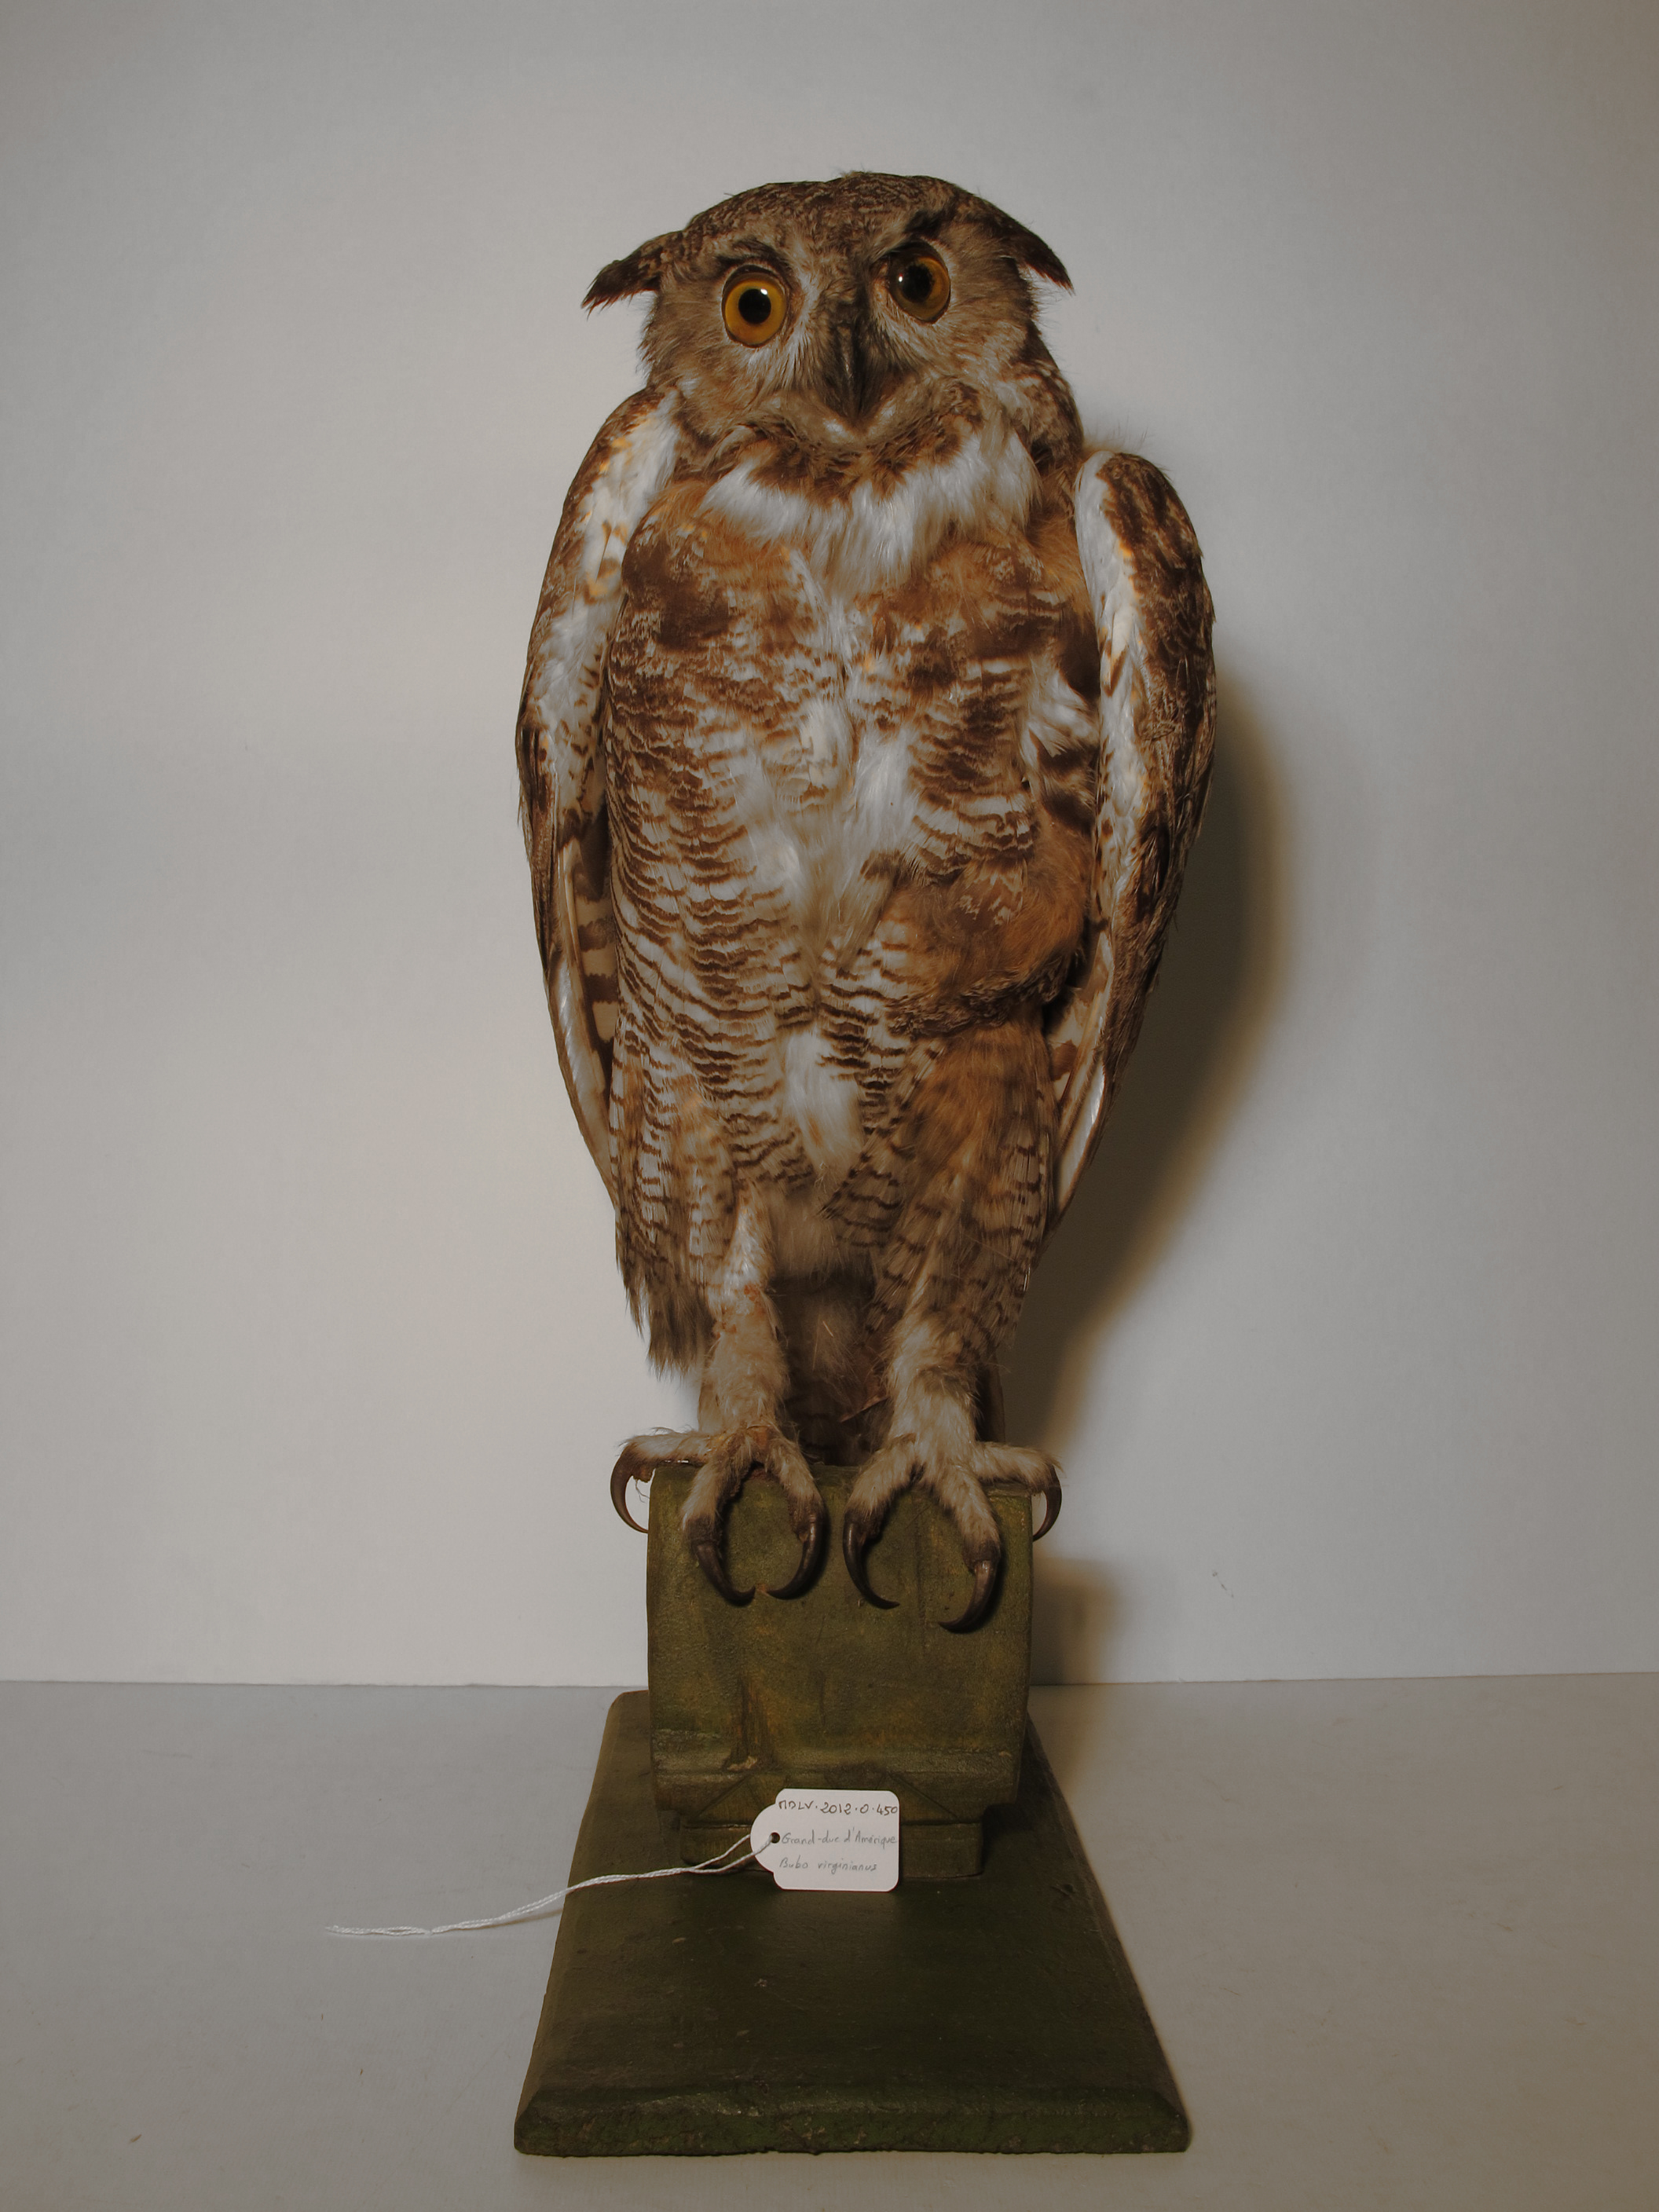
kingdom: Animalia
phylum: Chordata
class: Aves
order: Strigiformes
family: Strigidae
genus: Bubo
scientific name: Bubo virginianus
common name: Great Horned Owl
